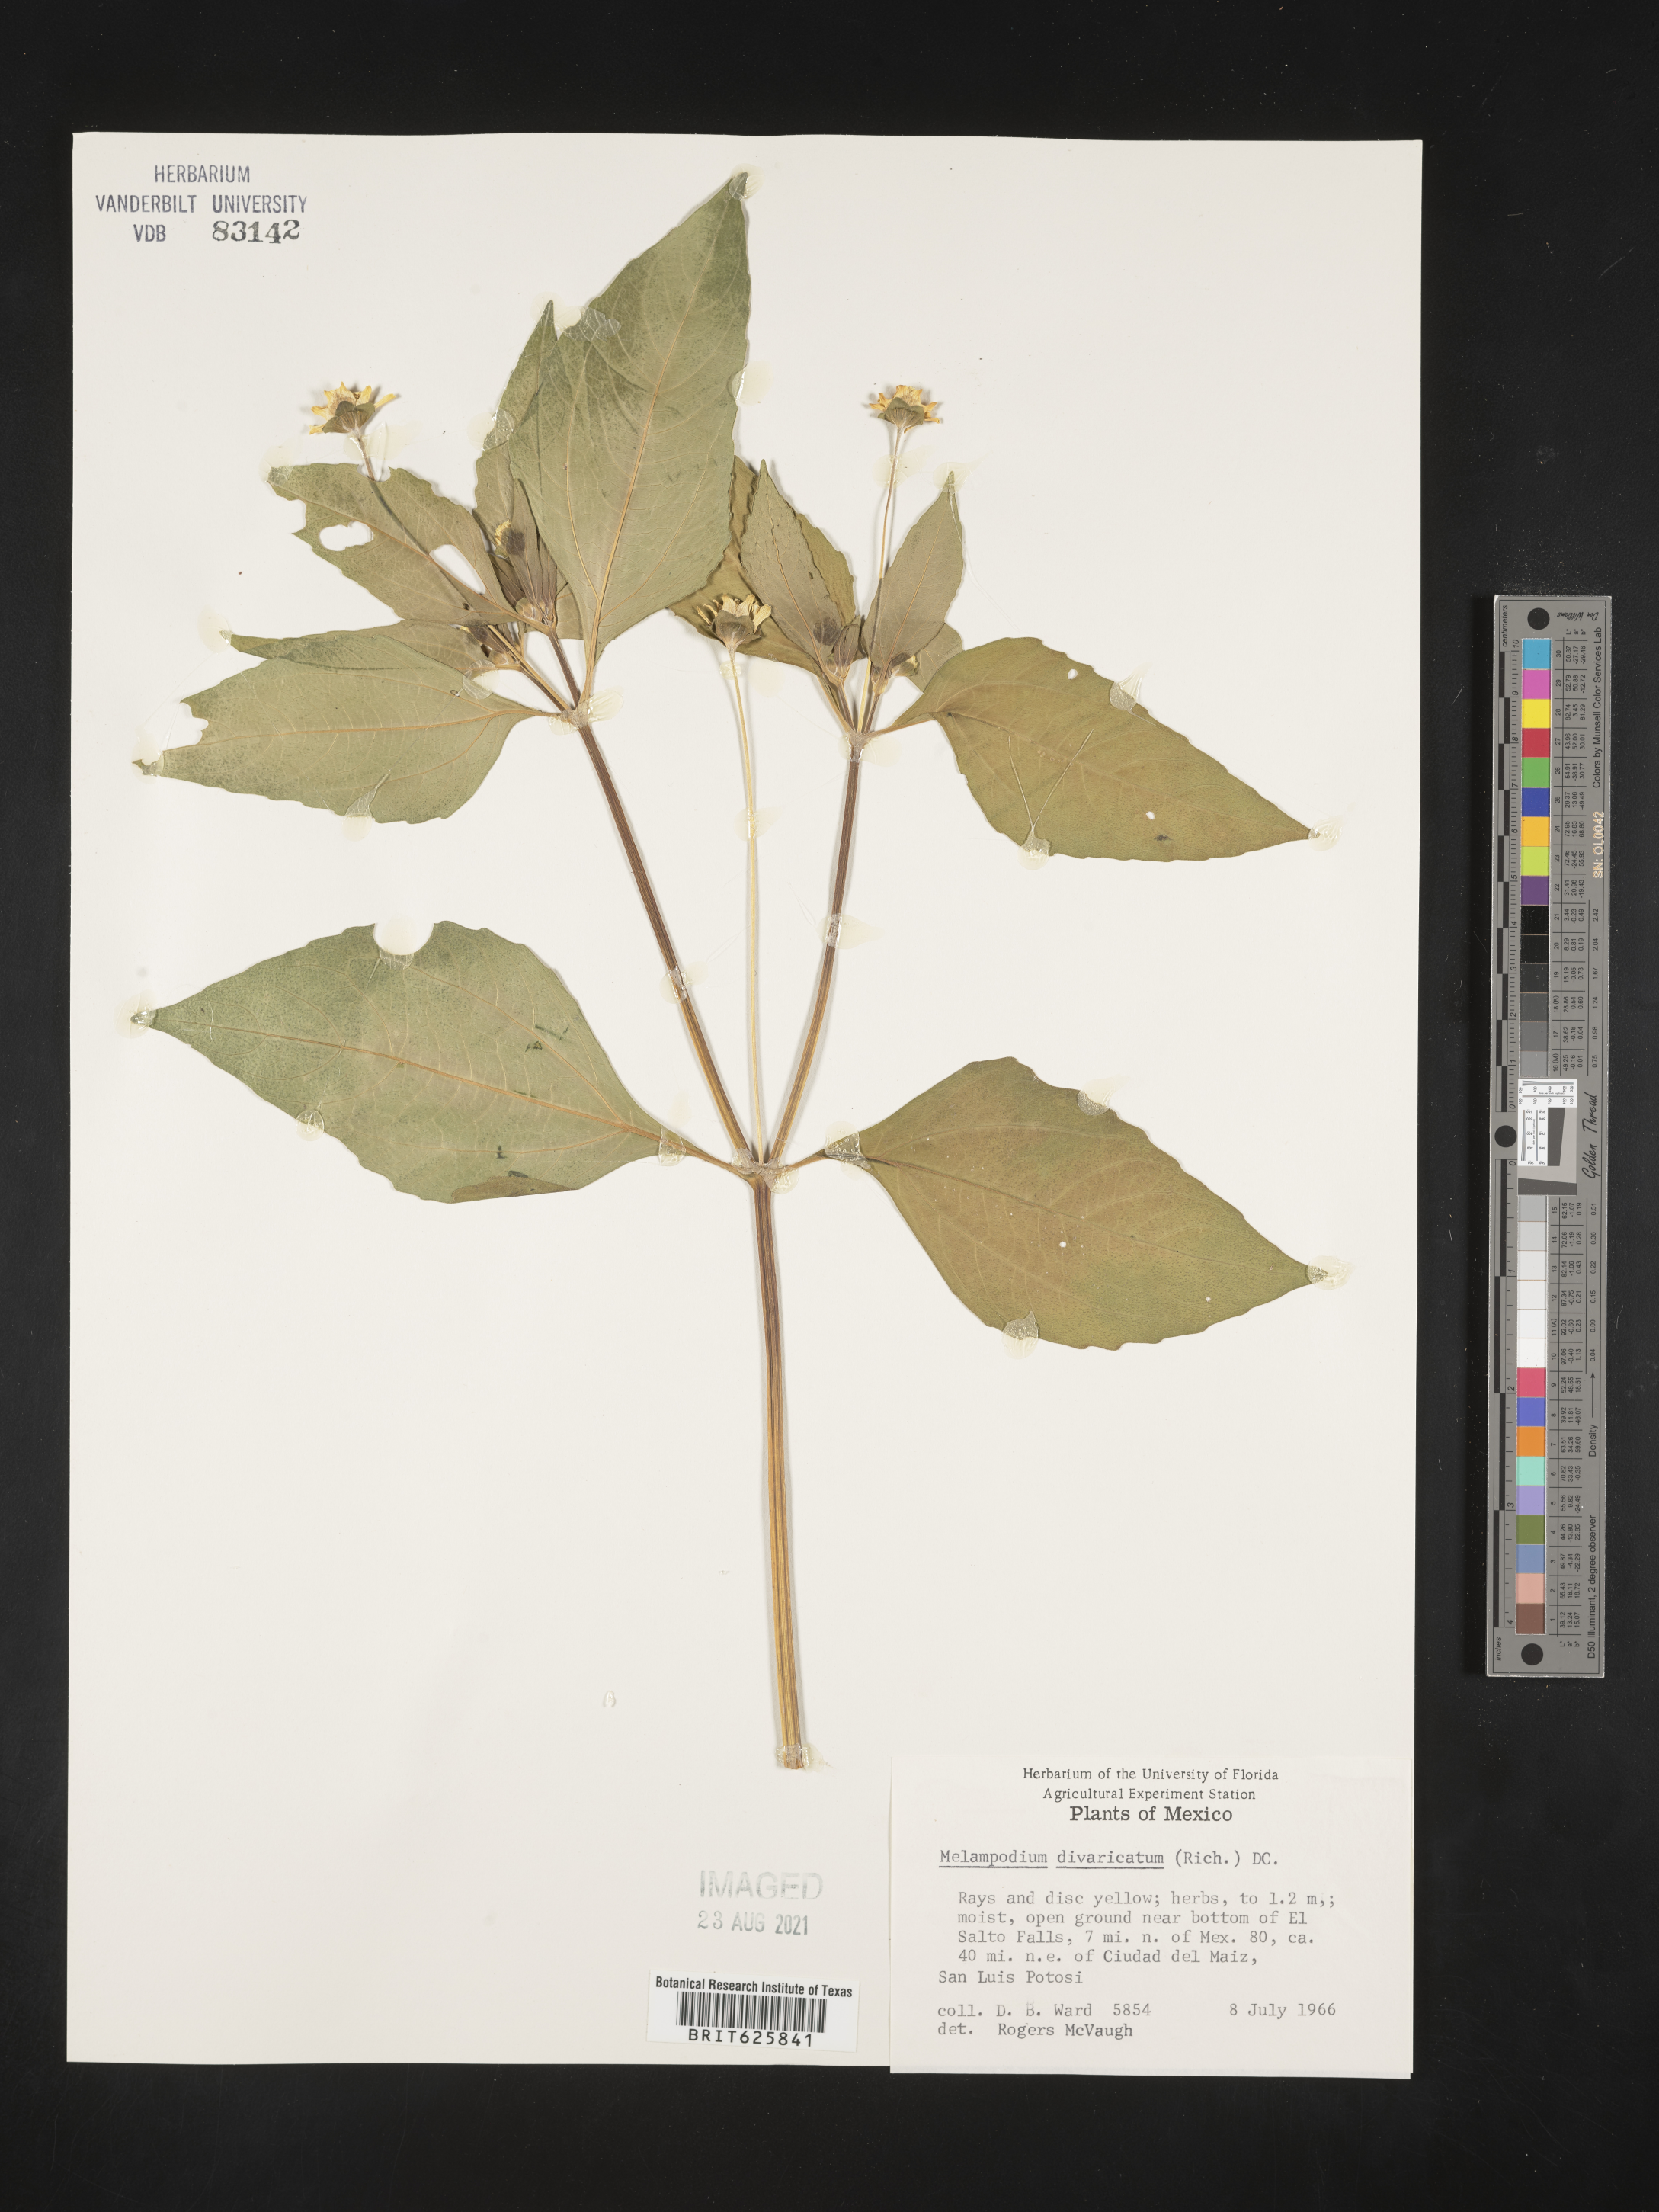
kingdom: Plantae
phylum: Tracheophyta
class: Magnoliopsida
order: Asterales
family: Asteraceae
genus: Melampodium
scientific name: Melampodium
